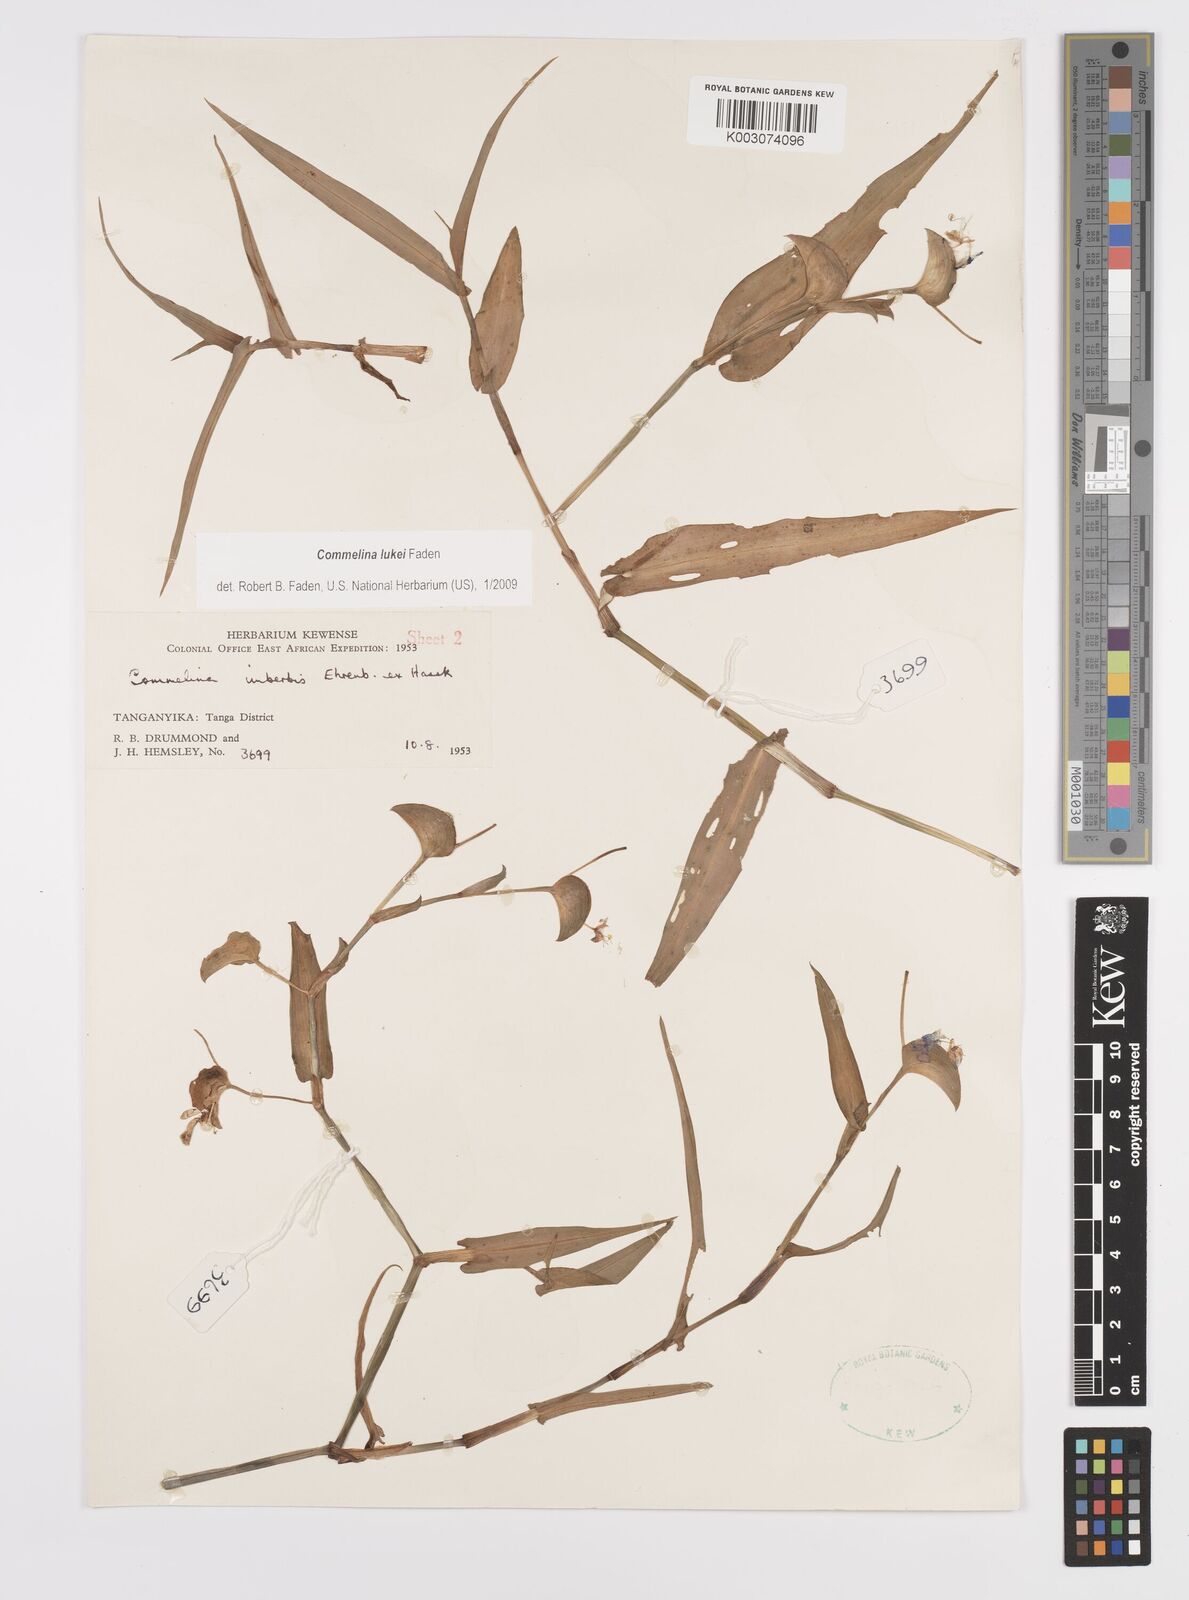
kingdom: Plantae
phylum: Tracheophyta
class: Liliopsida
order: Commelinales
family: Commelinaceae
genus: Commelina
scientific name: Commelina lukei
